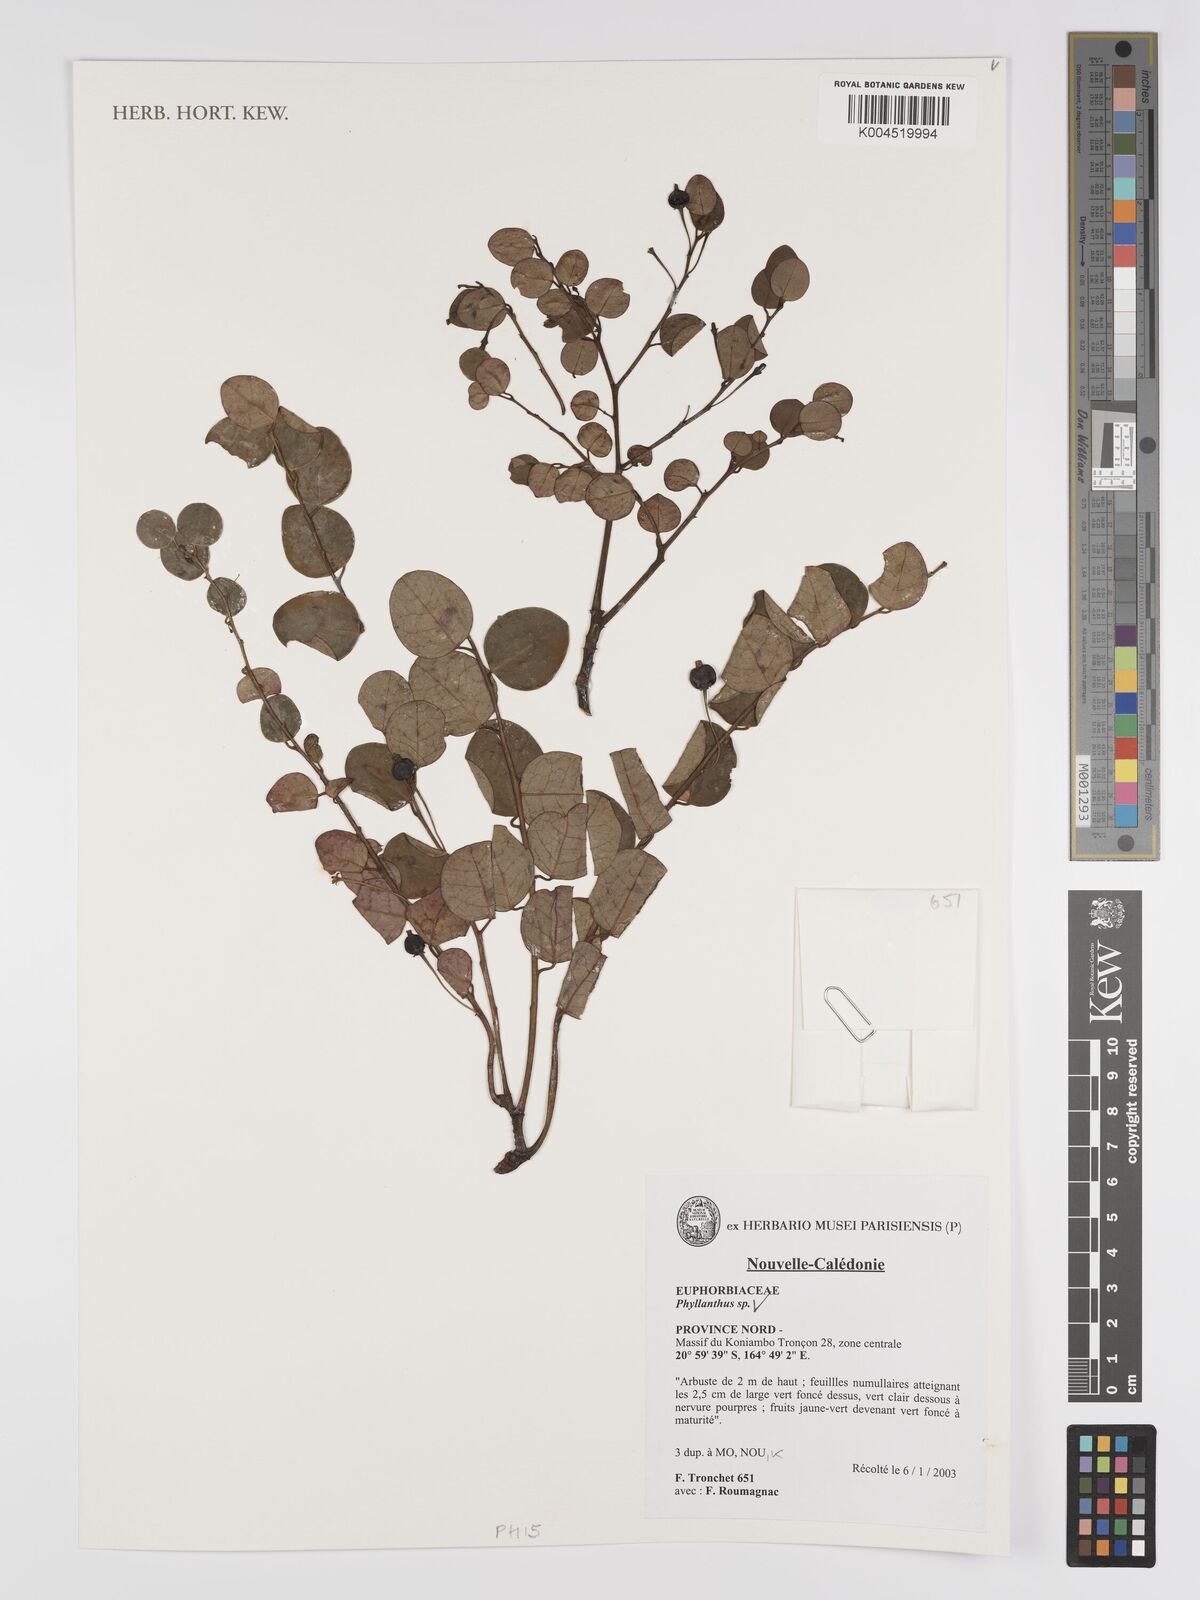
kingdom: Plantae
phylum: Tracheophyta
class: Magnoliopsida
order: Malpighiales
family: Phyllanthaceae
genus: Phyllanthus
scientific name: Phyllanthus
